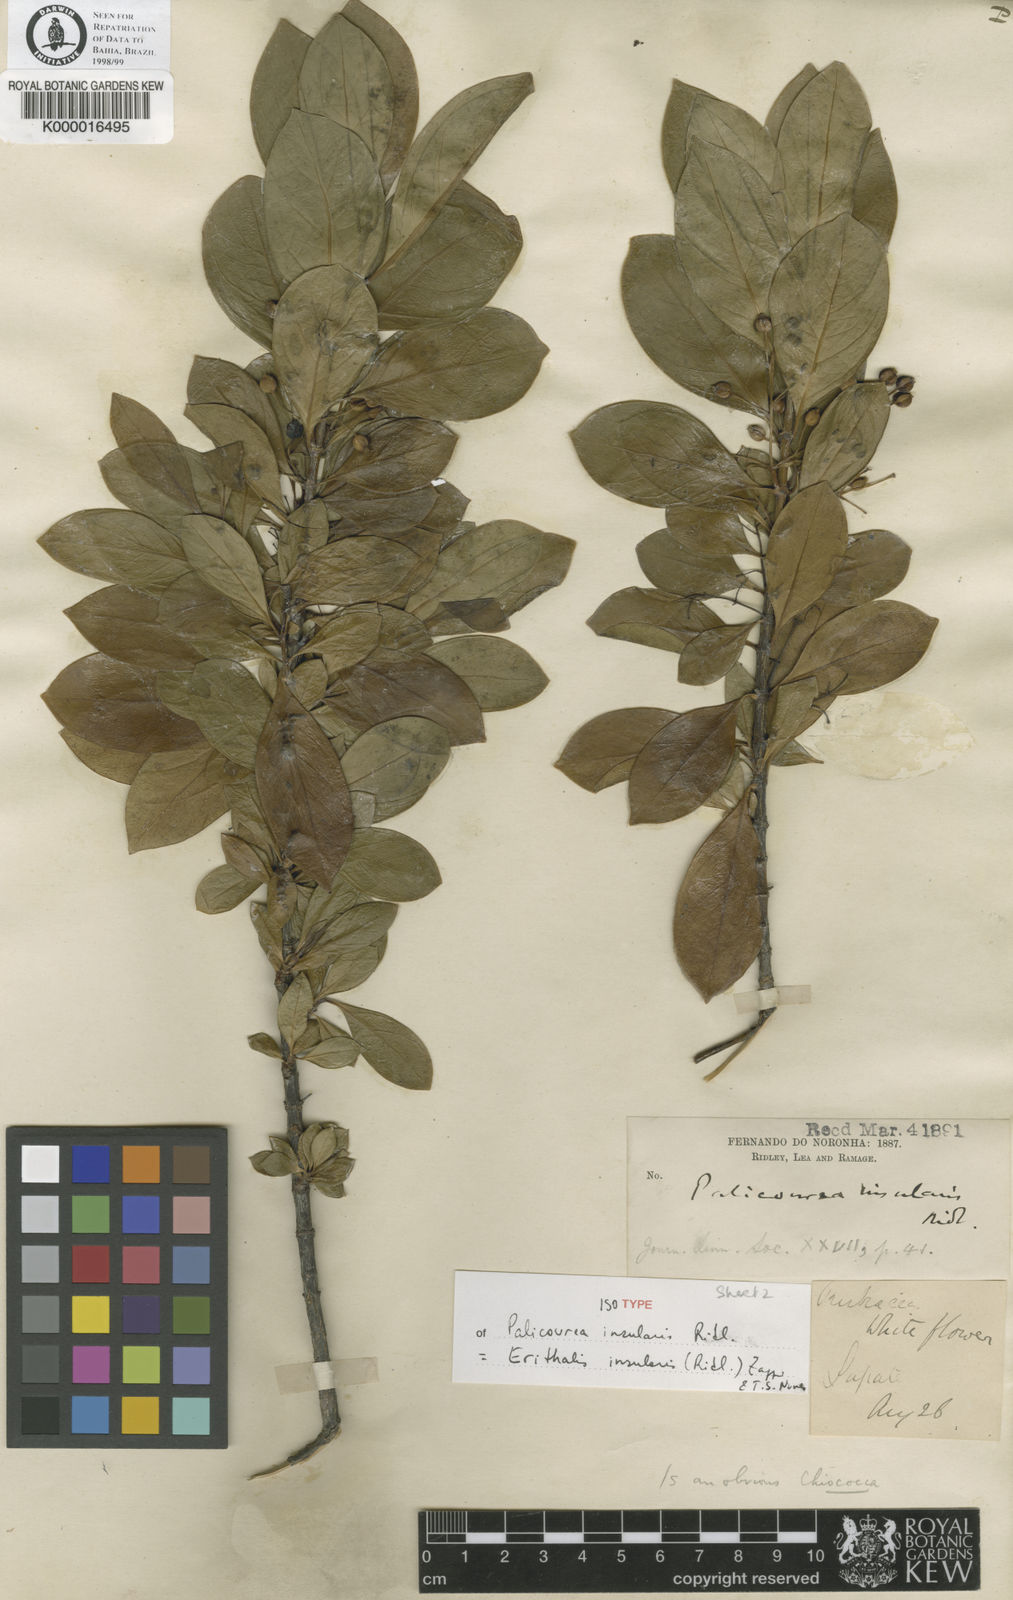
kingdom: Plantae
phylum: Tracheophyta
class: Magnoliopsida
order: Gentianales
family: Rubiaceae
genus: Chiococca
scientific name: Chiococca insularis
